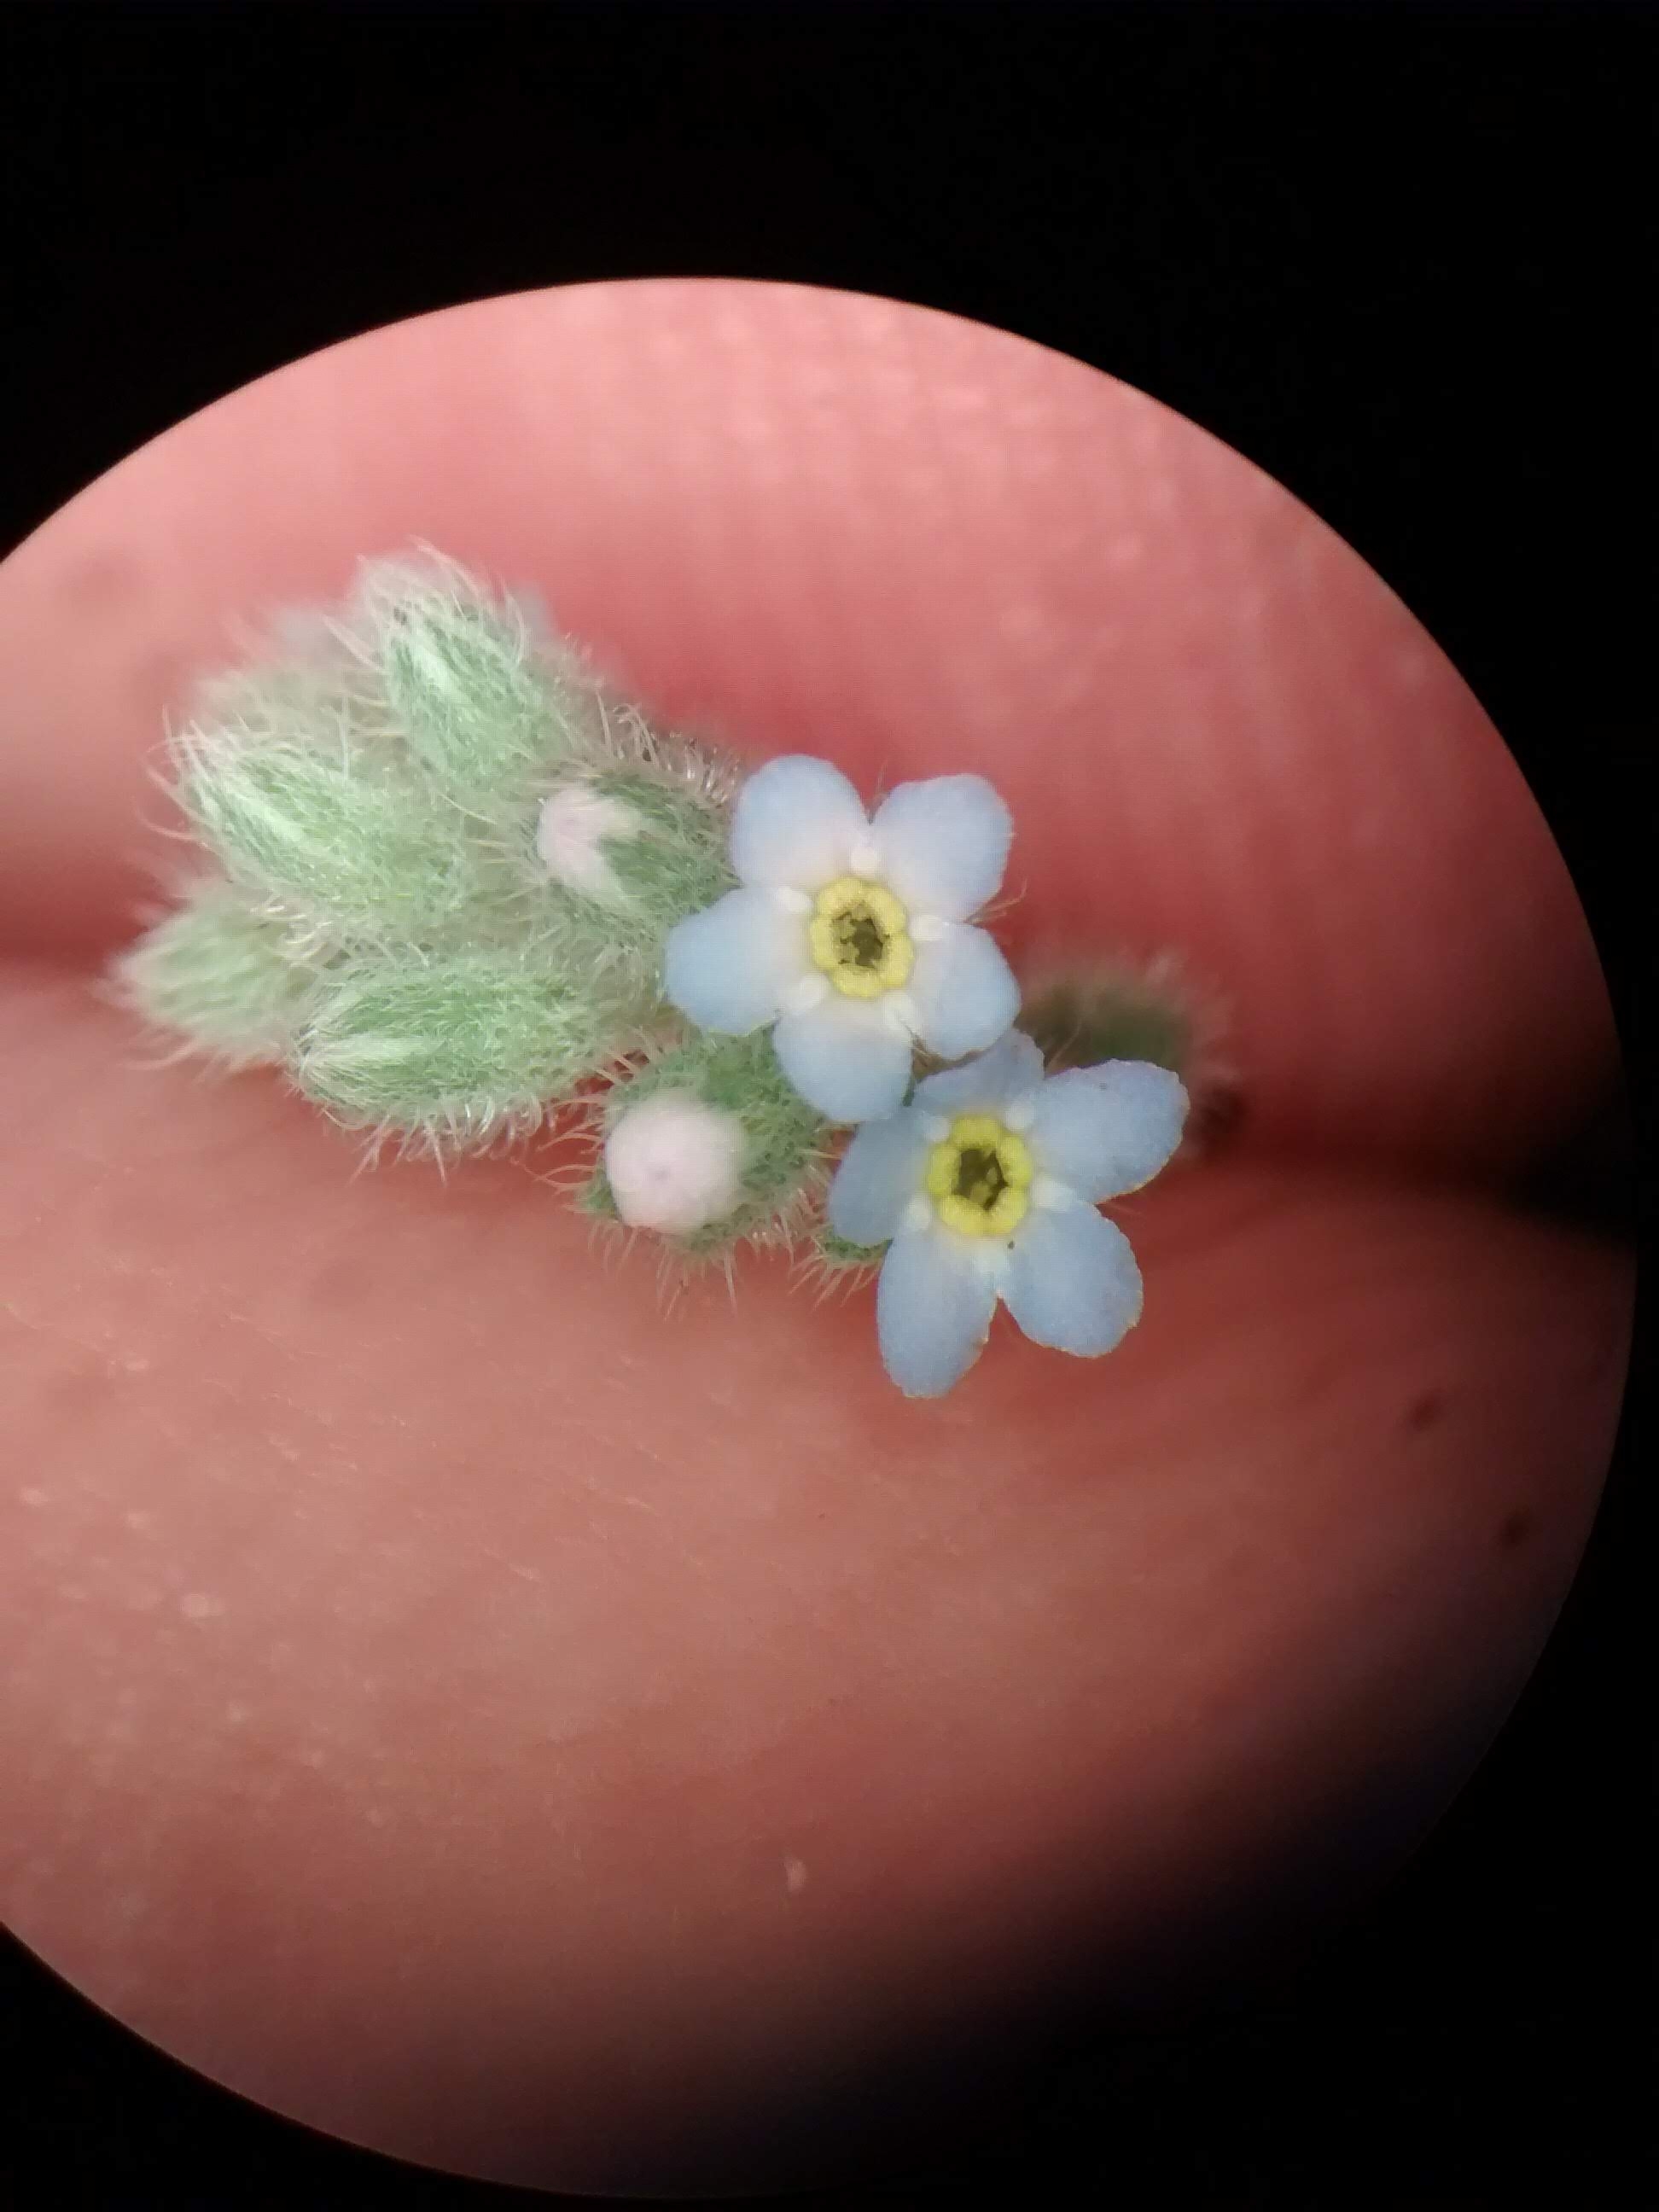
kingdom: Plantae
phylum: Tracheophyta
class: Magnoliopsida
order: Boraginales
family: Boraginaceae
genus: Myosotis
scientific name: Myosotis arvensis
